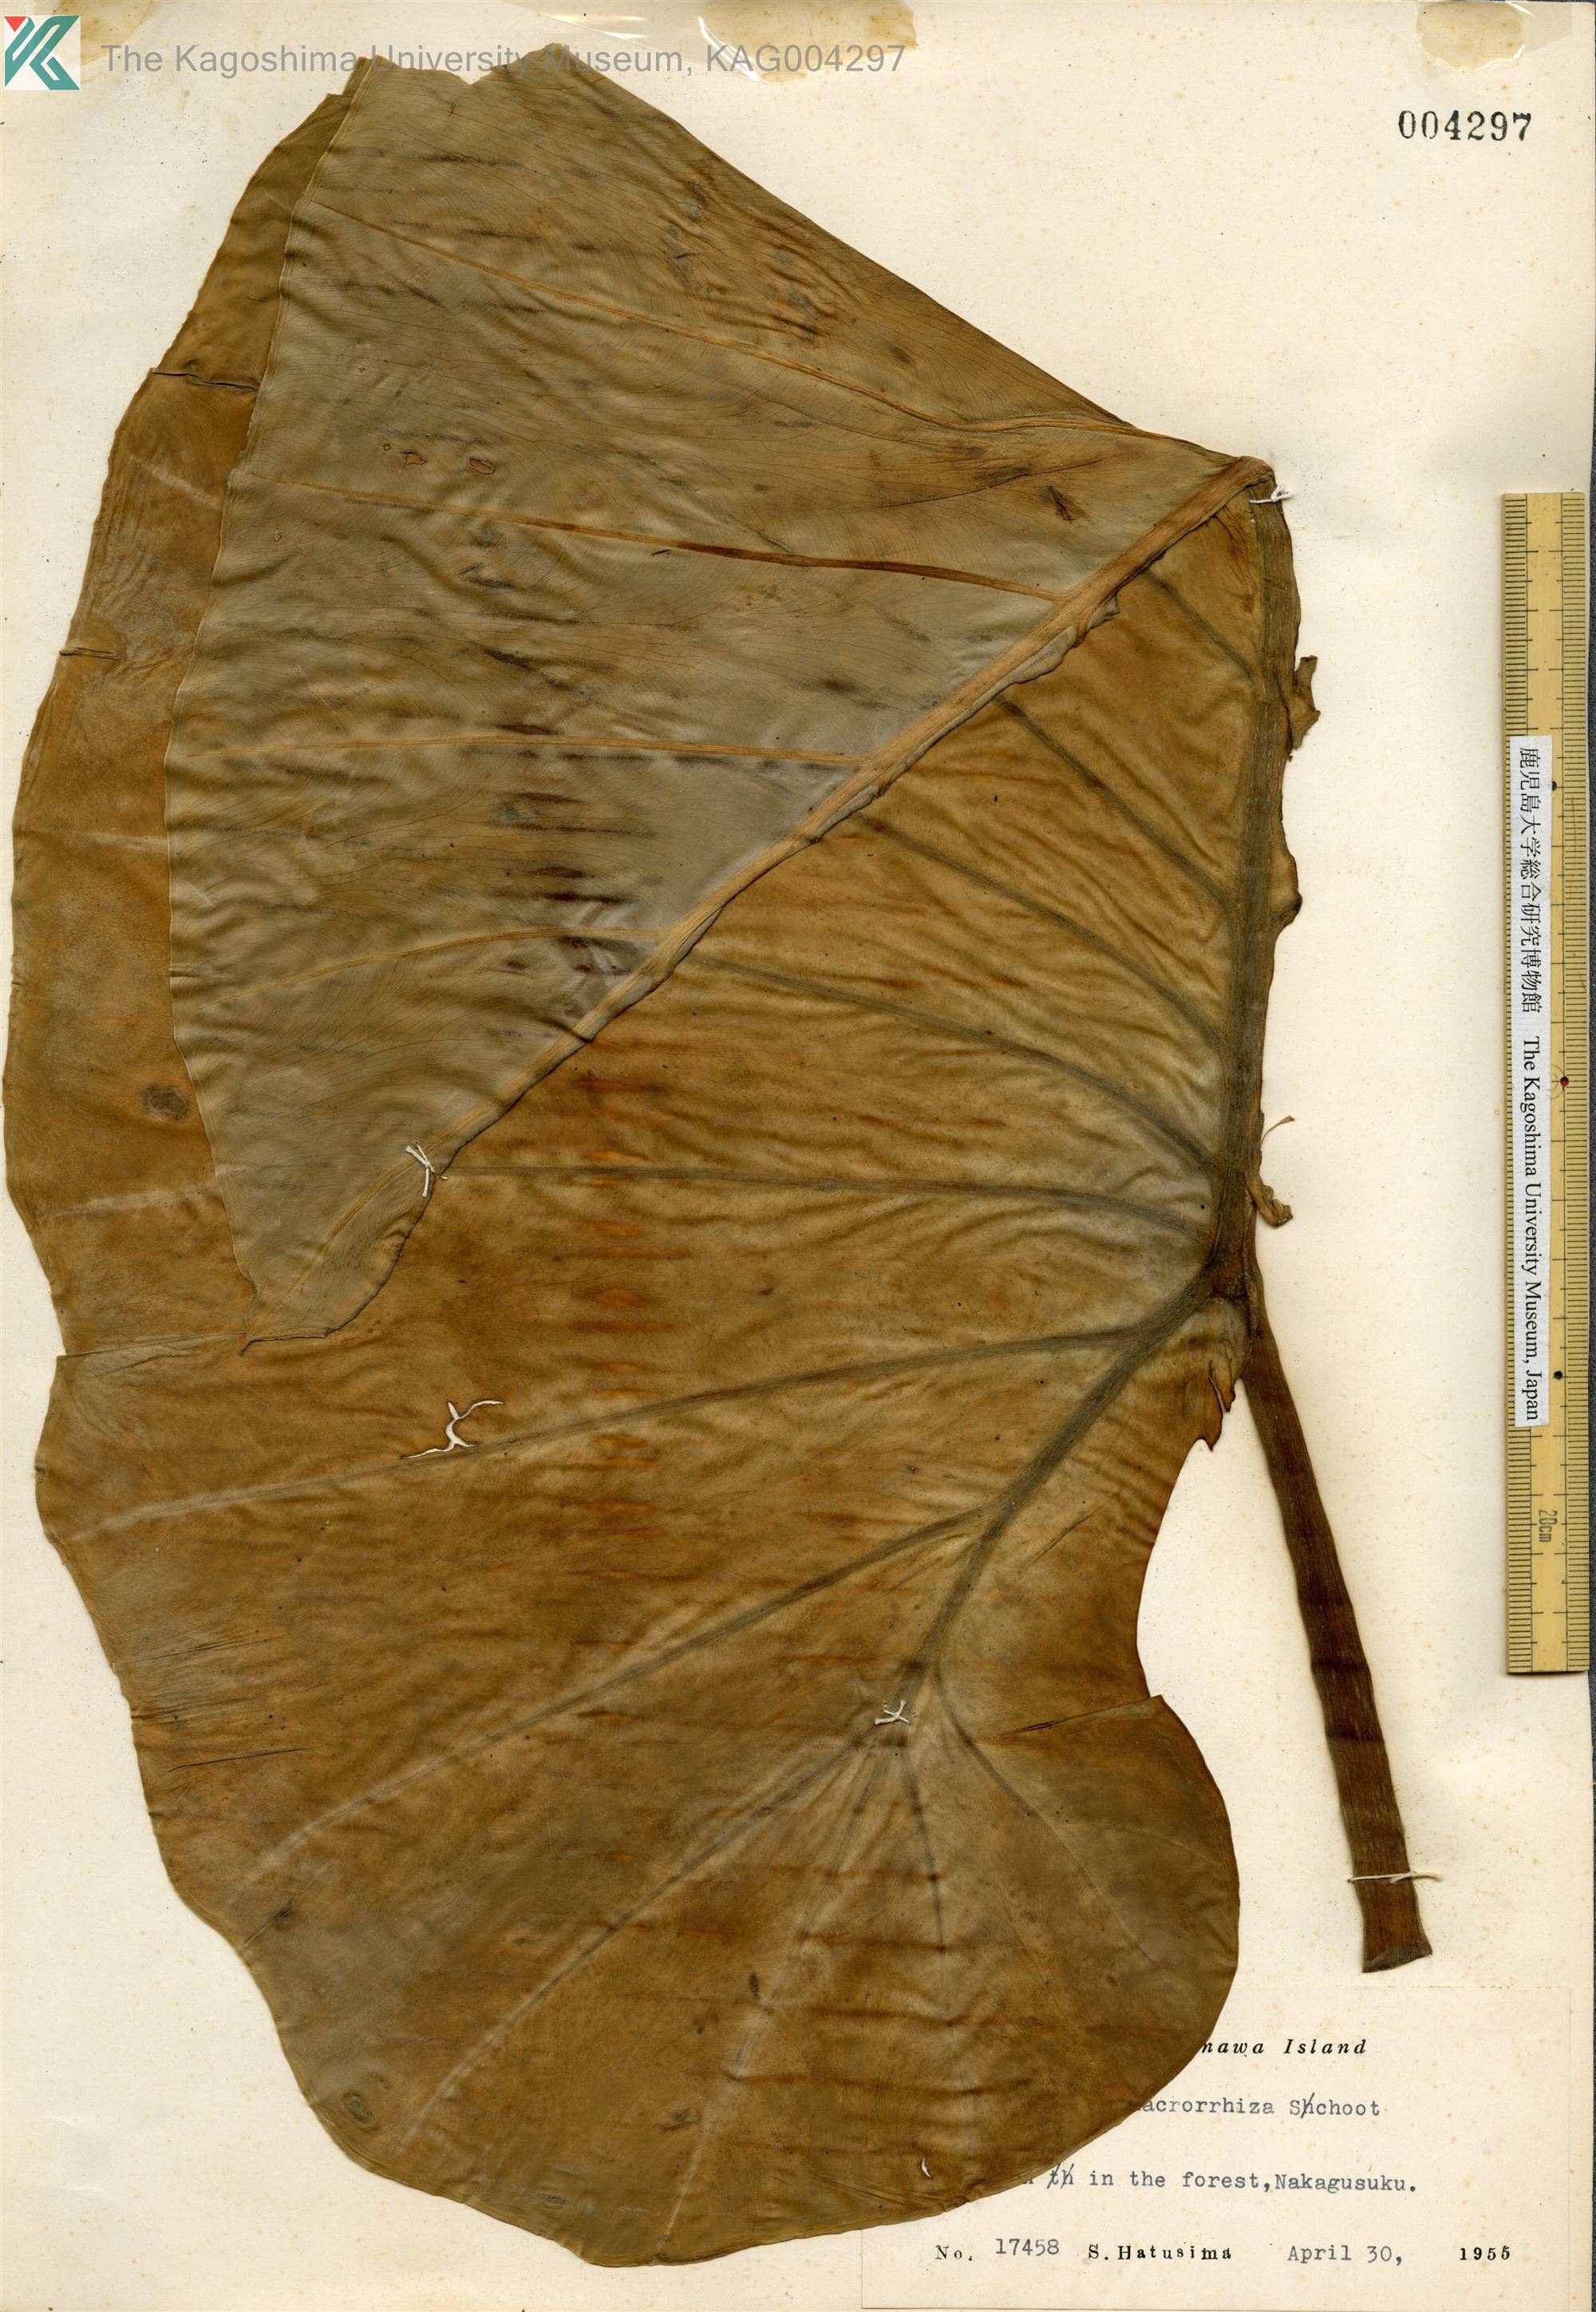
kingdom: Plantae
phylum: Tracheophyta
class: Liliopsida
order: Alismatales
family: Araceae
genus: Alocasia
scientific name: Alocasia odora
